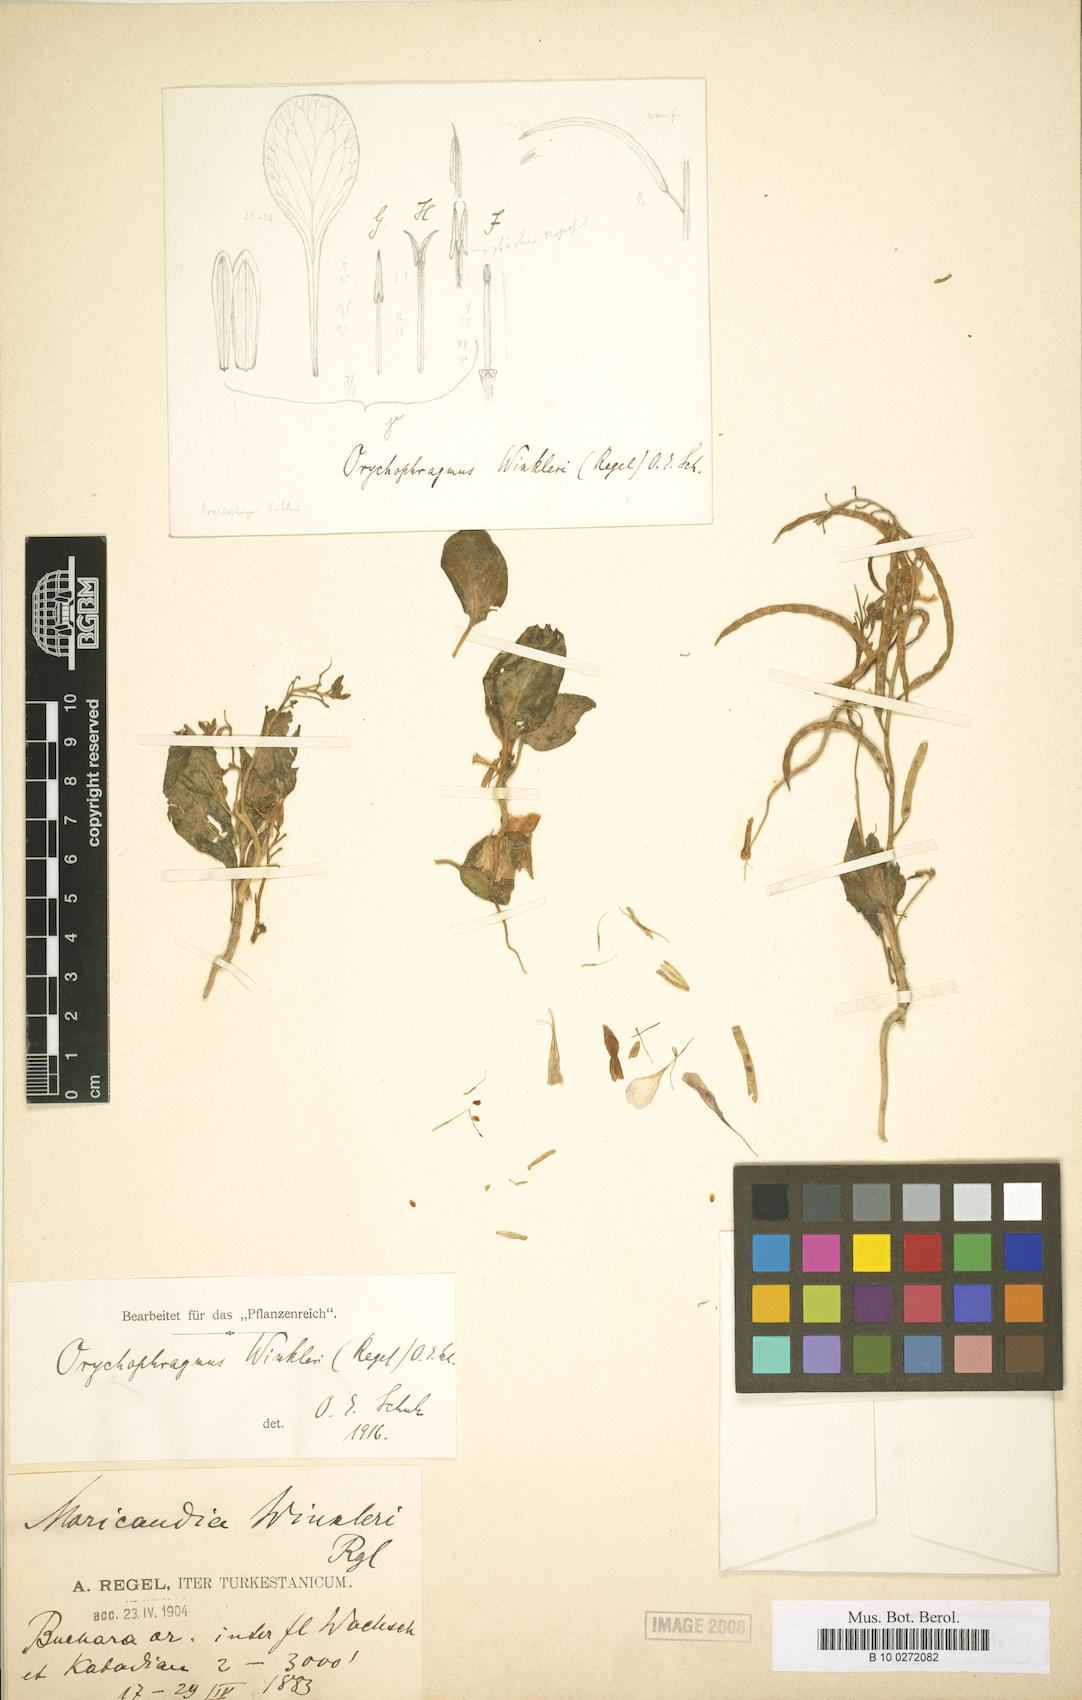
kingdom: Plantae
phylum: Tracheophyta
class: Magnoliopsida
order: Brassicales
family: Brassicaceae
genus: Spryginia
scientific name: Spryginia falcata
